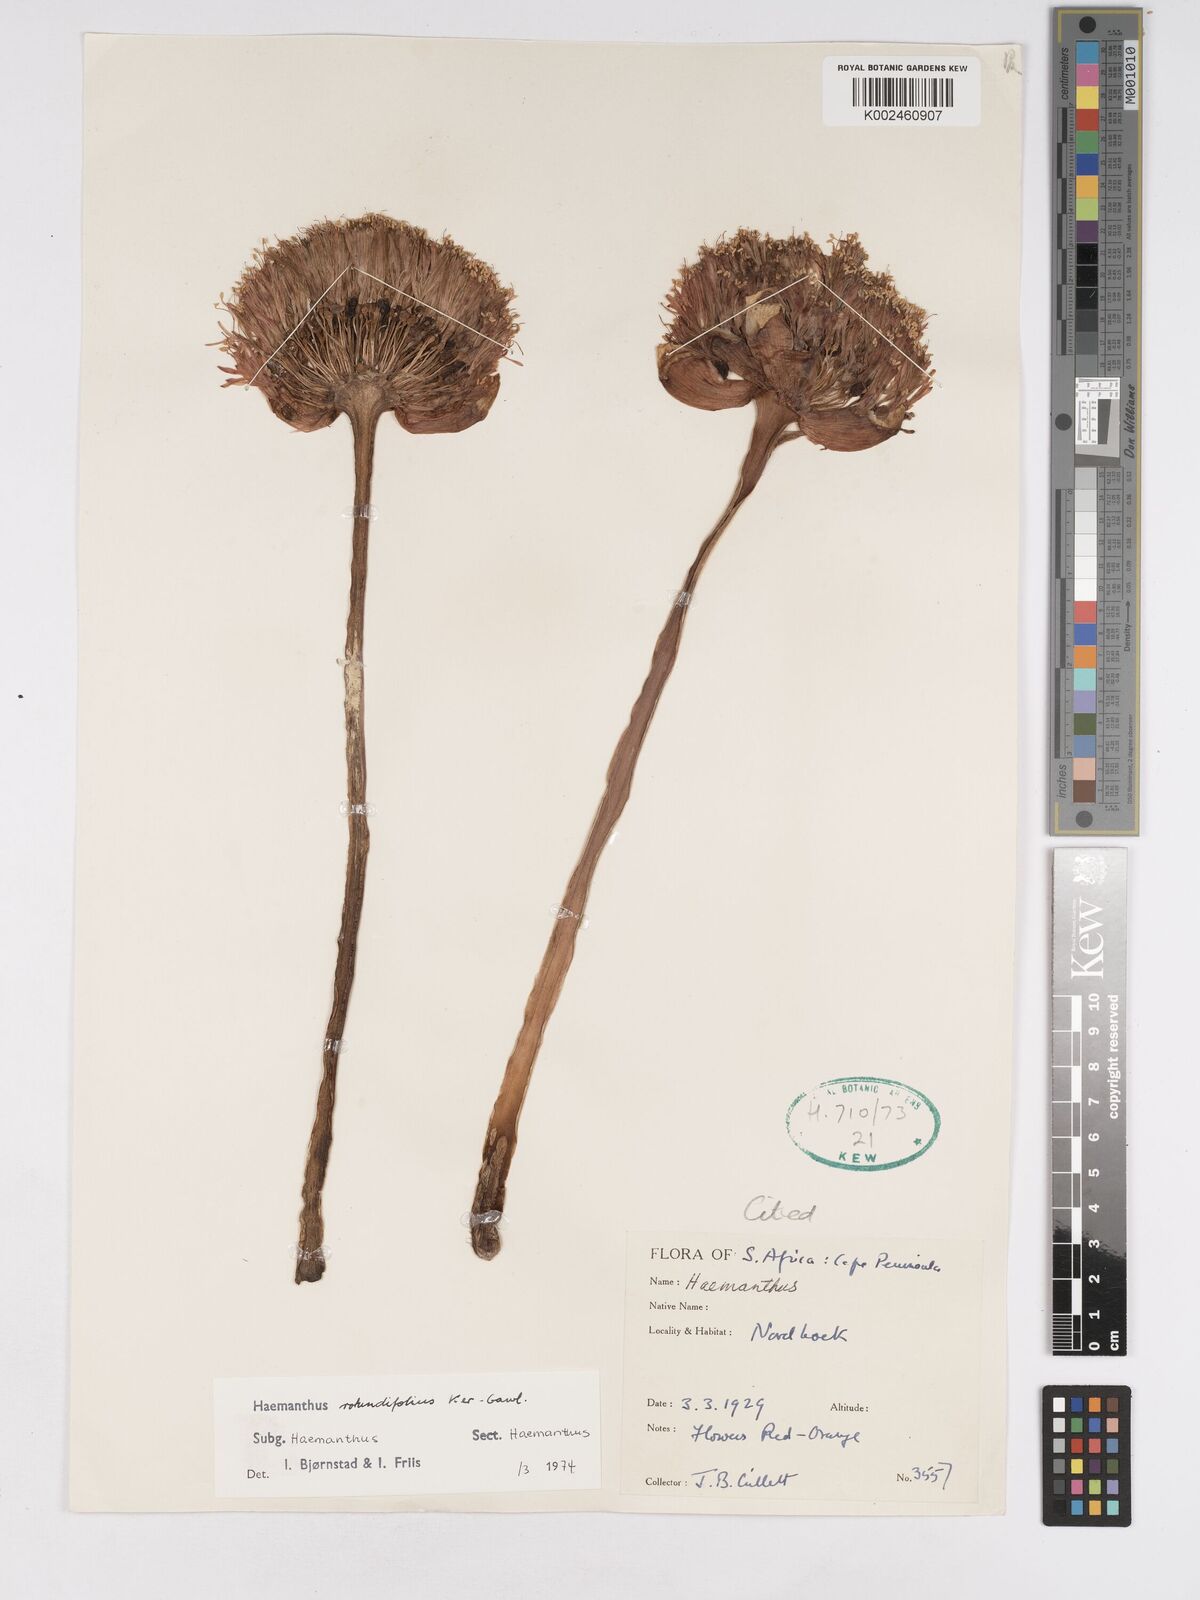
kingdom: Plantae
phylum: Tracheophyta
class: Liliopsida
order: Asparagales
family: Amaryllidaceae
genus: Haemanthus
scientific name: Haemanthus sanguineus
